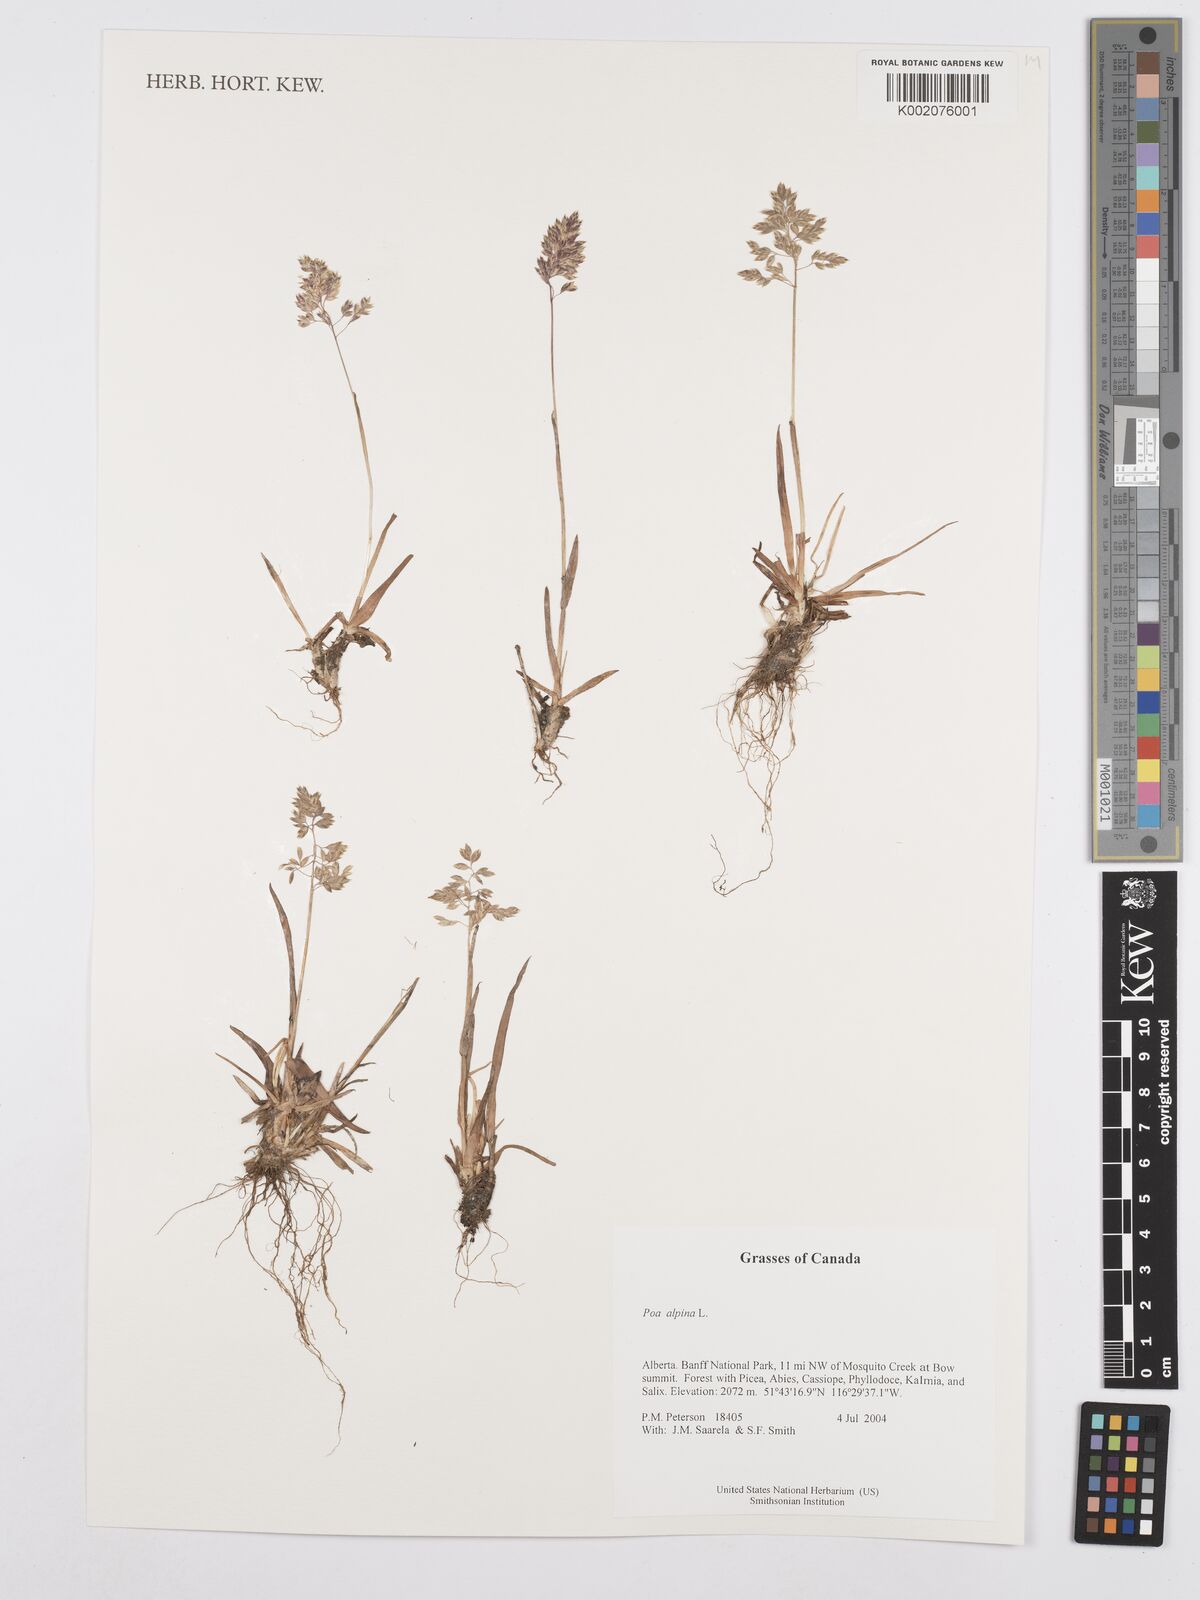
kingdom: Plantae
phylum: Tracheophyta
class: Liliopsida
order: Poales
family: Poaceae
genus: Poa
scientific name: Poa alpina
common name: Alpine bluegrass
